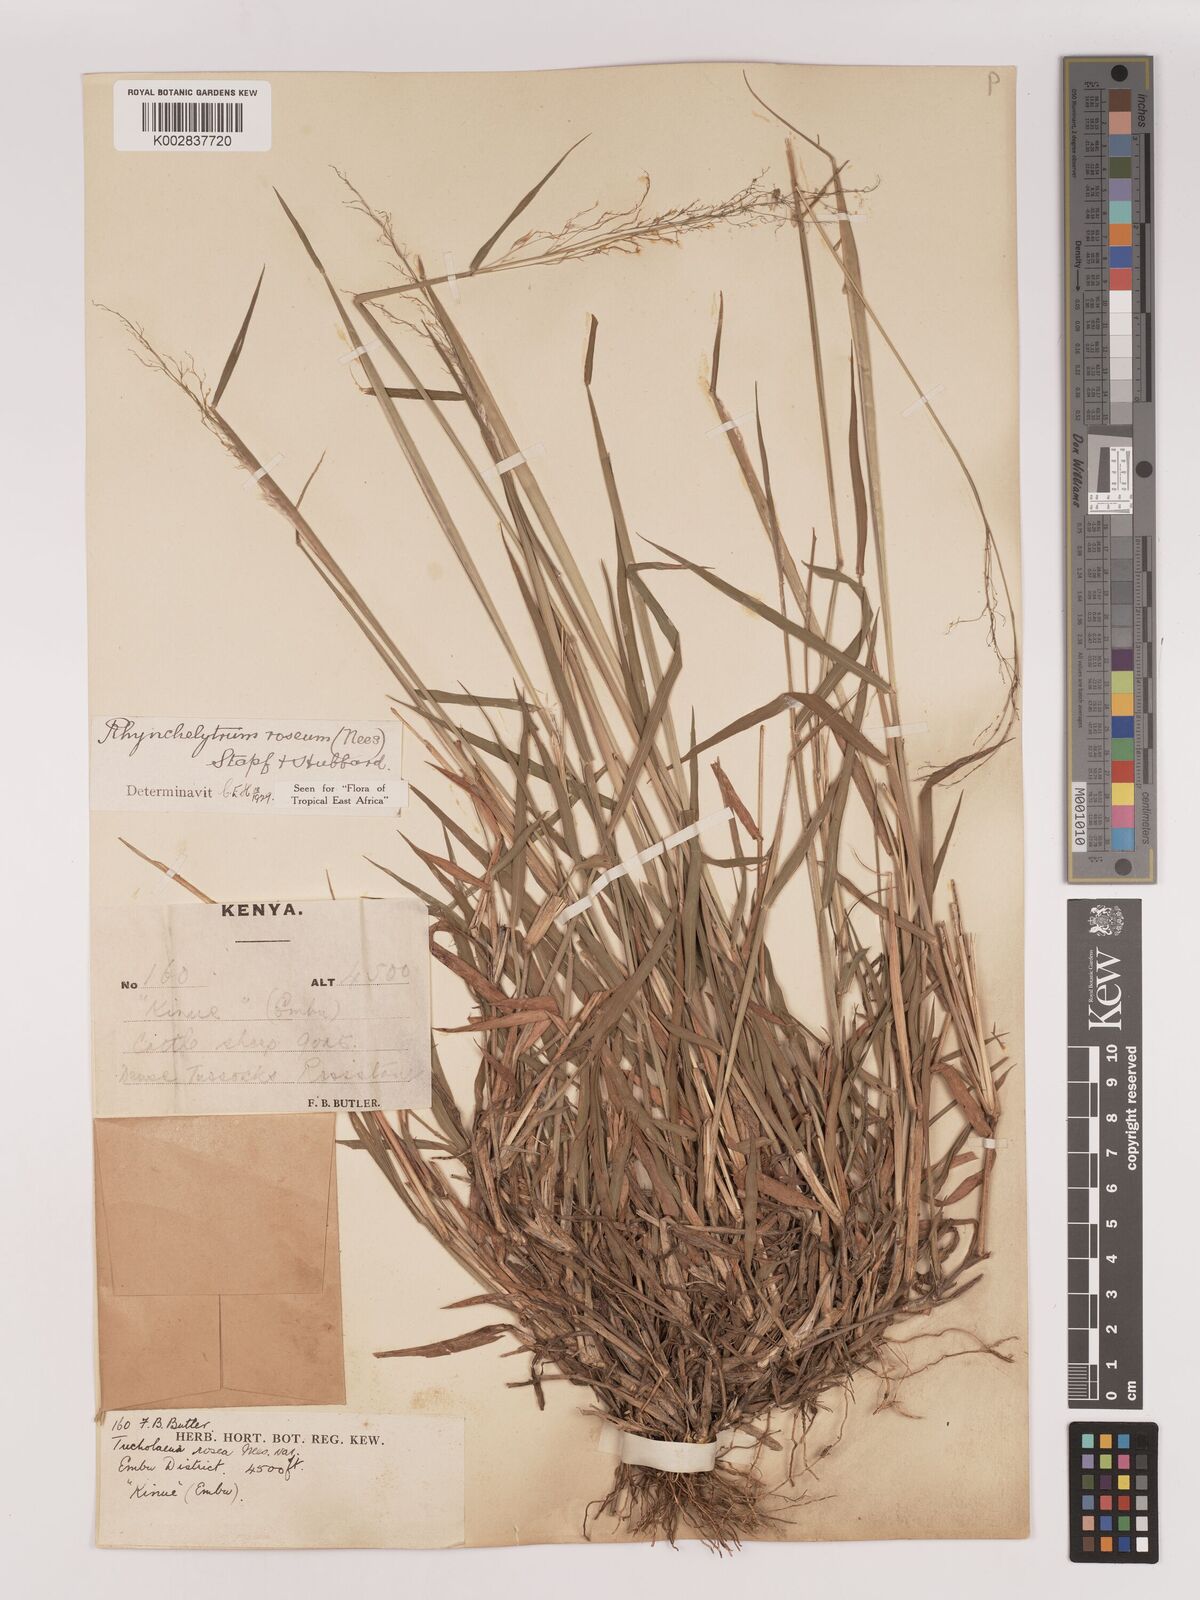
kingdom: Plantae
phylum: Tracheophyta
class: Liliopsida
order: Poales
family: Poaceae
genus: Melinis
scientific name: Melinis repens
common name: Rose natal grass
